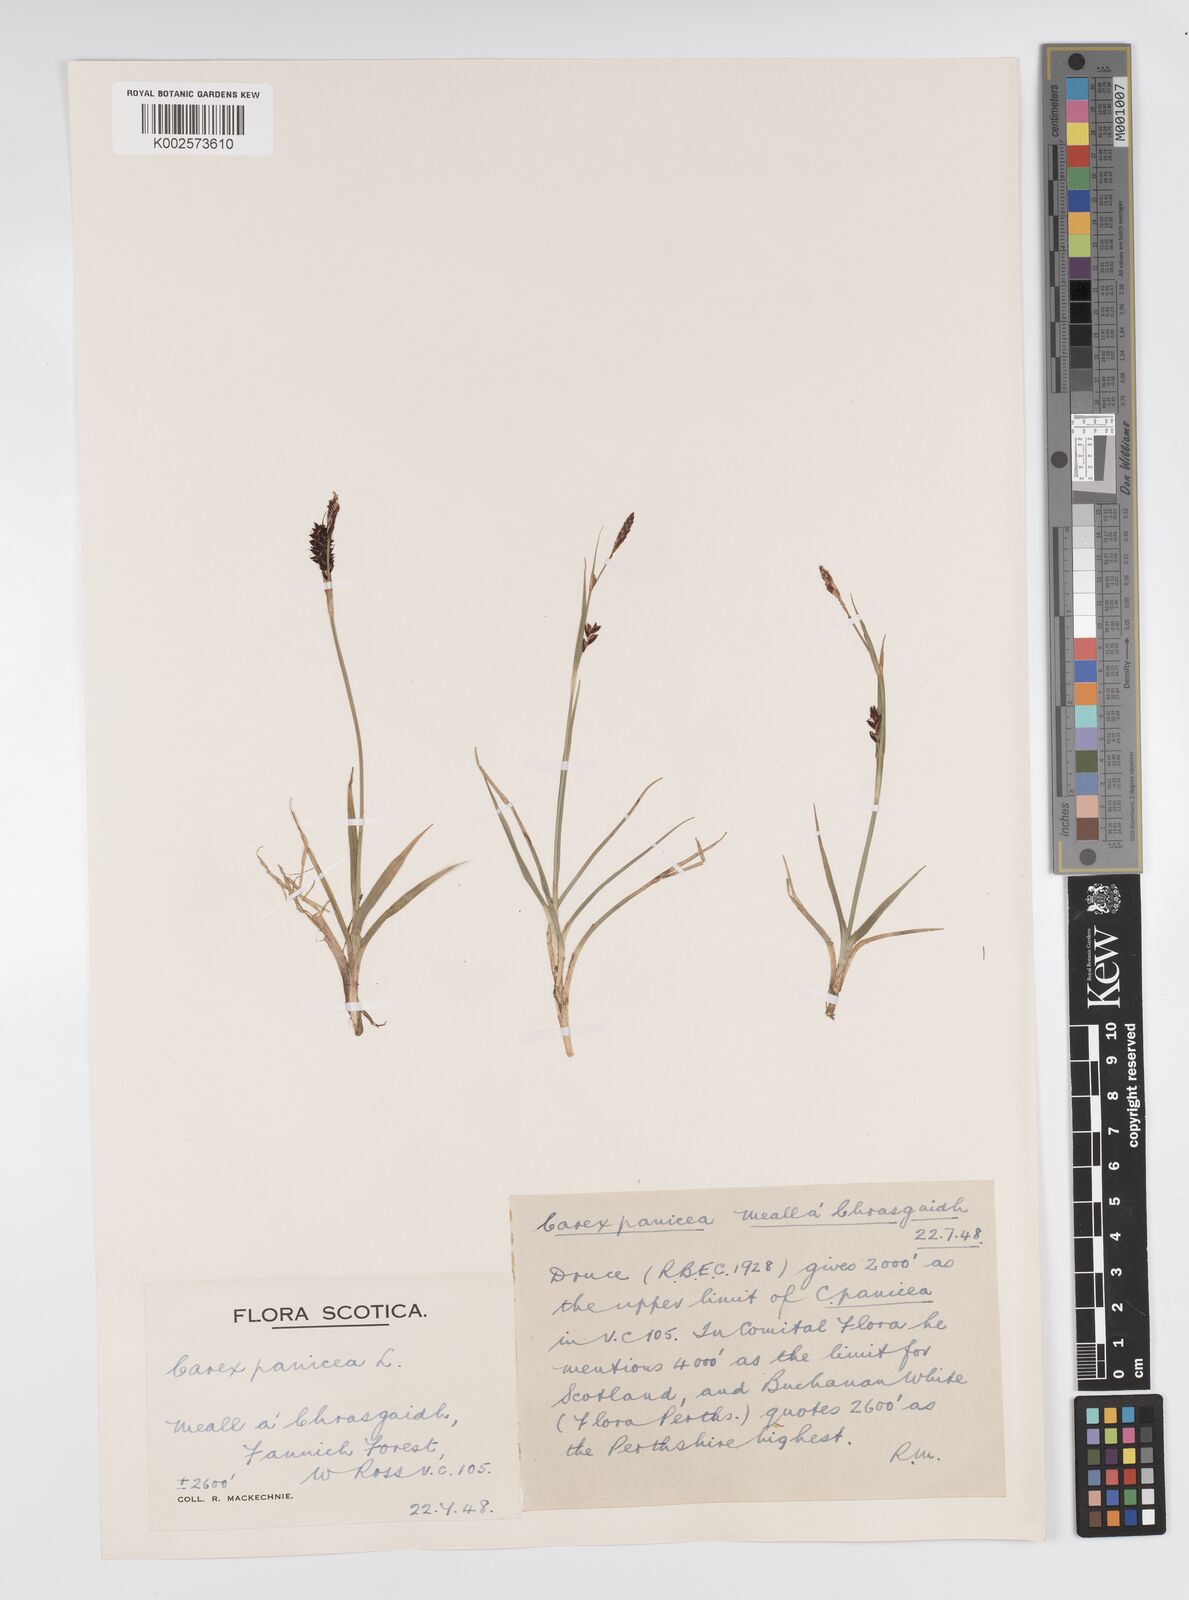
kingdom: Plantae
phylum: Tracheophyta
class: Liliopsida
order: Poales
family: Cyperaceae
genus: Carex
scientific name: Carex panicea
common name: Carnation sedge
